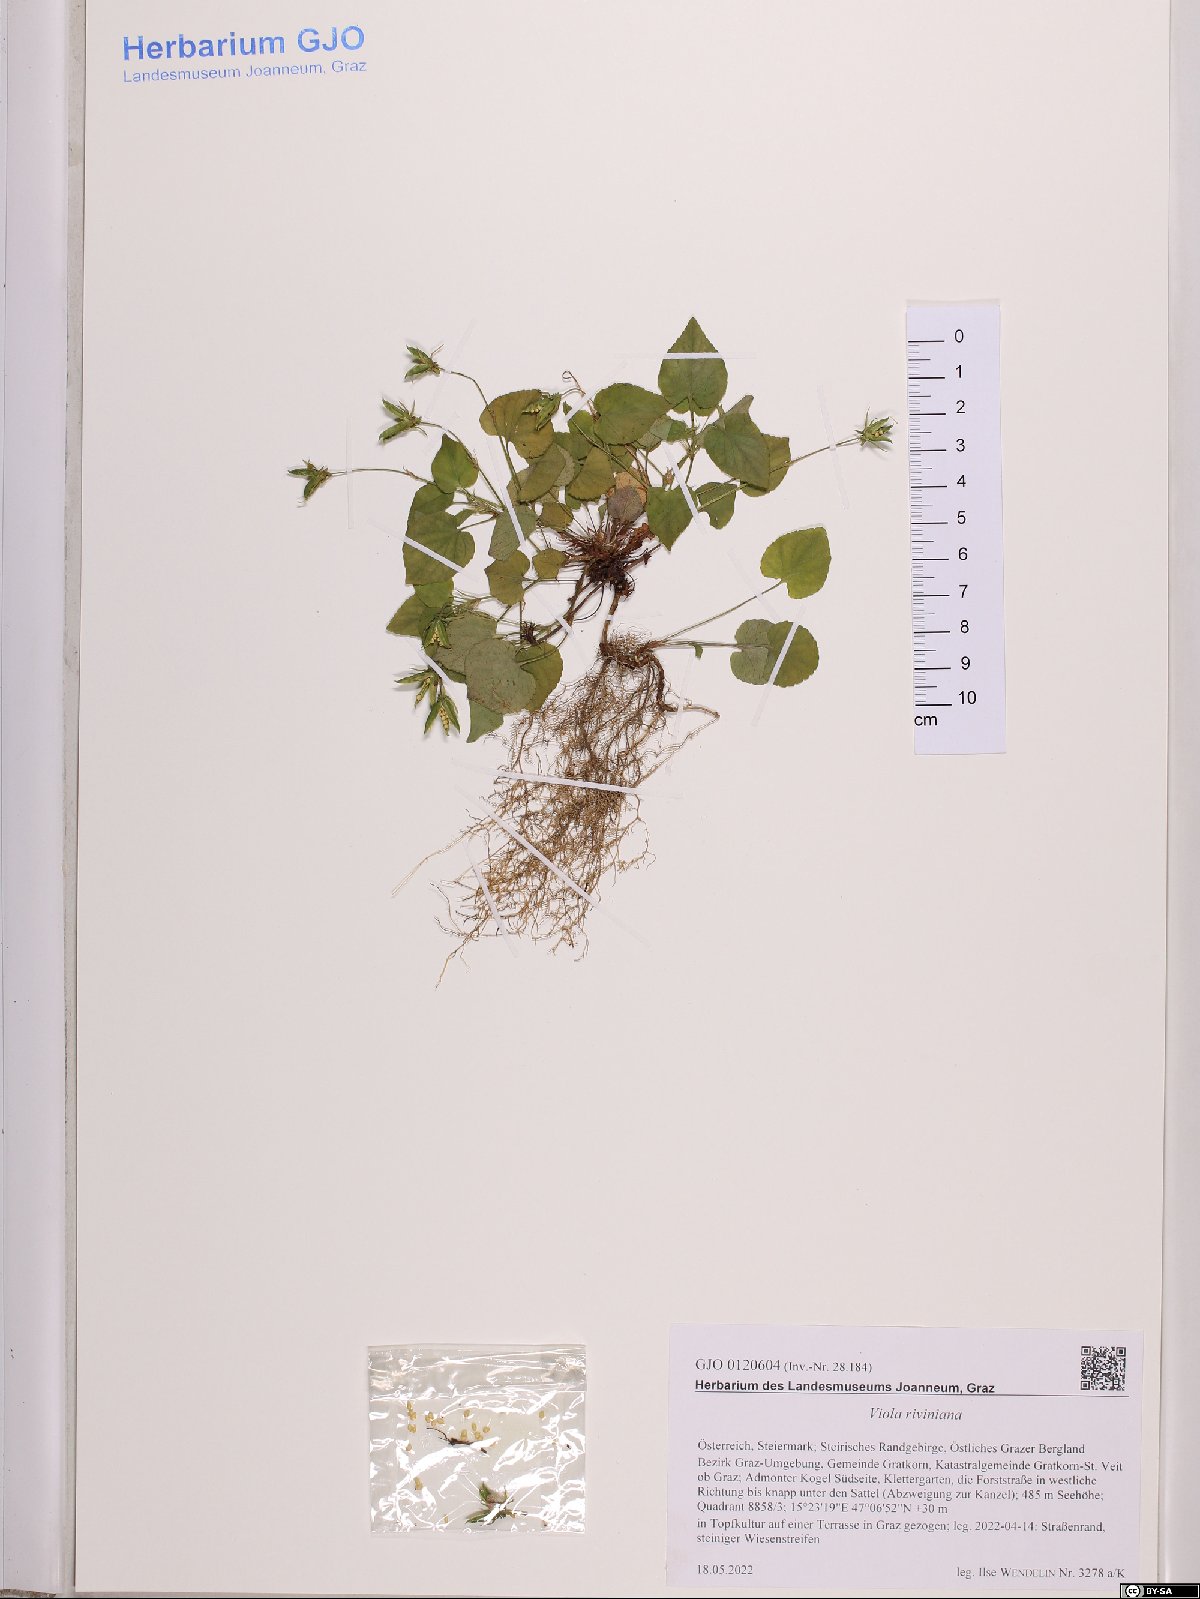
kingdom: Plantae
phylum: Tracheophyta
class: Magnoliopsida
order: Malpighiales
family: Violaceae
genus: Viola
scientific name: Viola riviniana
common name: Common dog-violet
